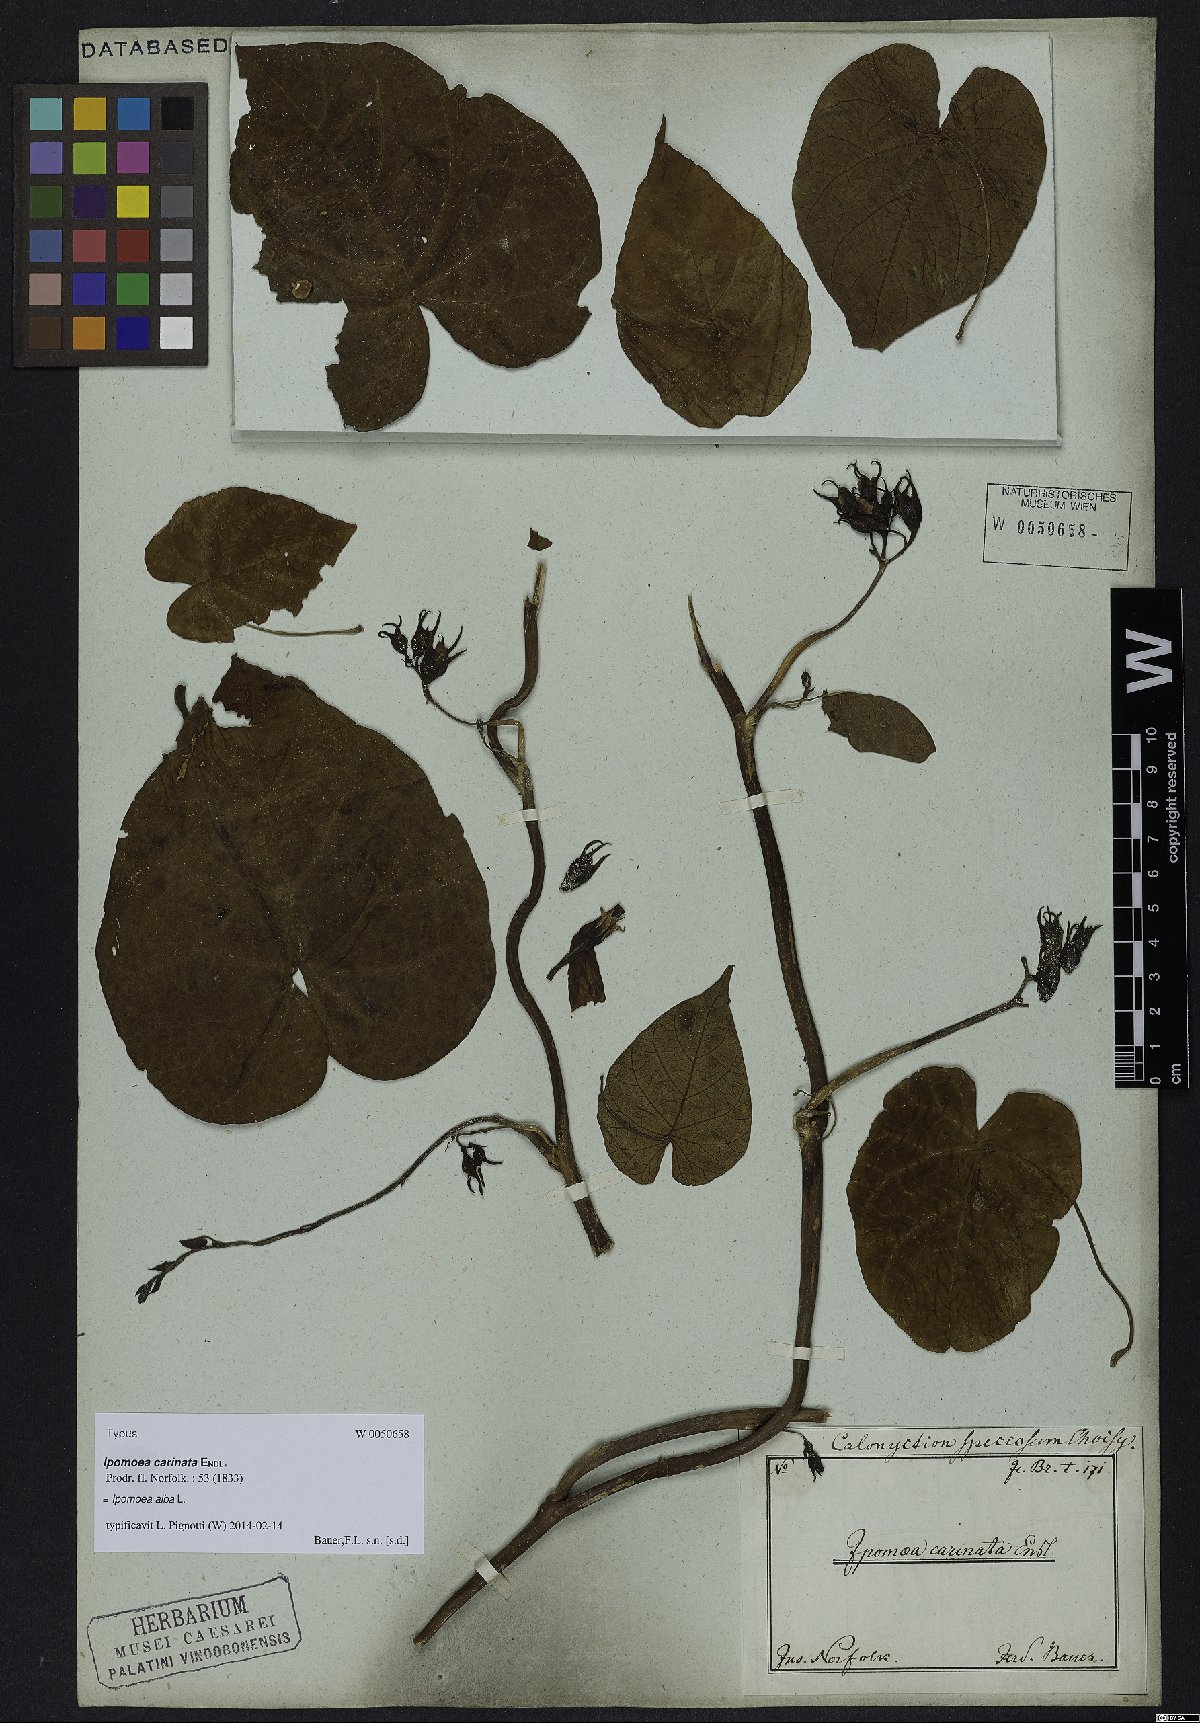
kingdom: Plantae
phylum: Tracheophyta
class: Magnoliopsida
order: Solanales
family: Convolvulaceae
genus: Ipomoea
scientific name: Ipomoea alba
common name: Moonflower
